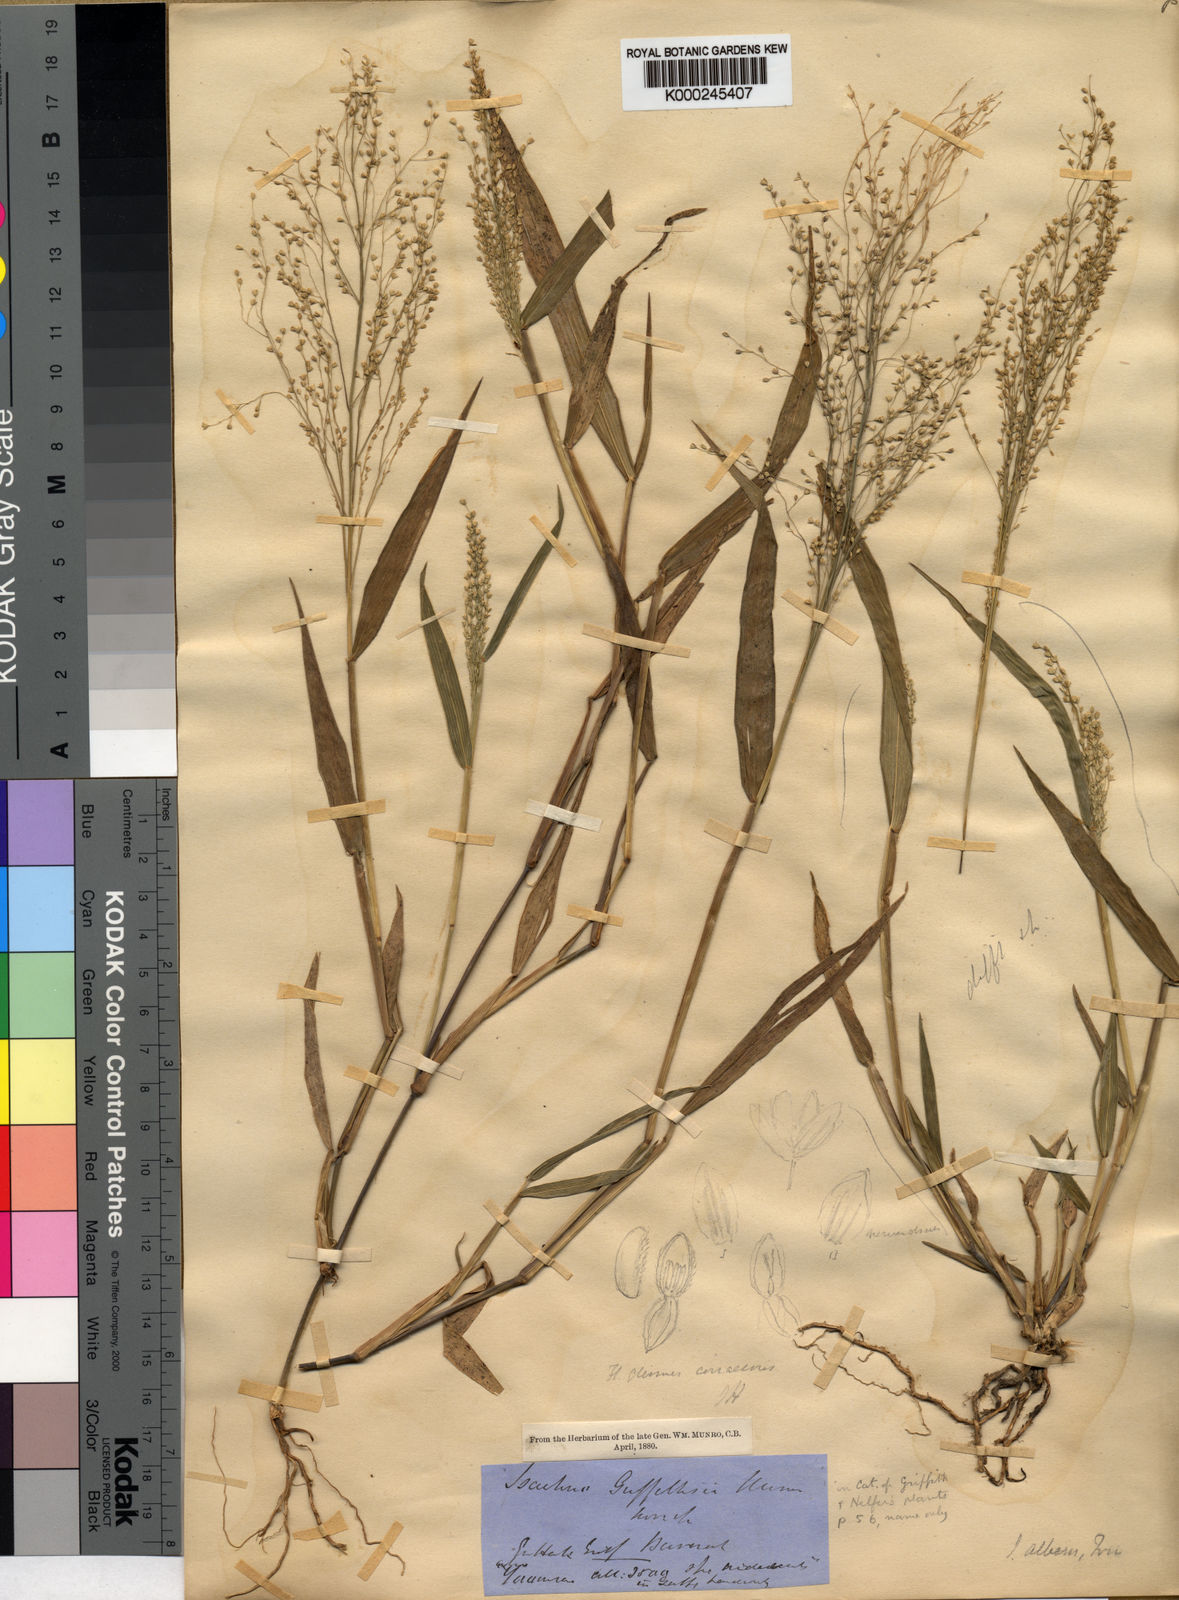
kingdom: Plantae
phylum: Tracheophyta
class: Liliopsida
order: Poales
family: Poaceae
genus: Isachne
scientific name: Isachne albens
